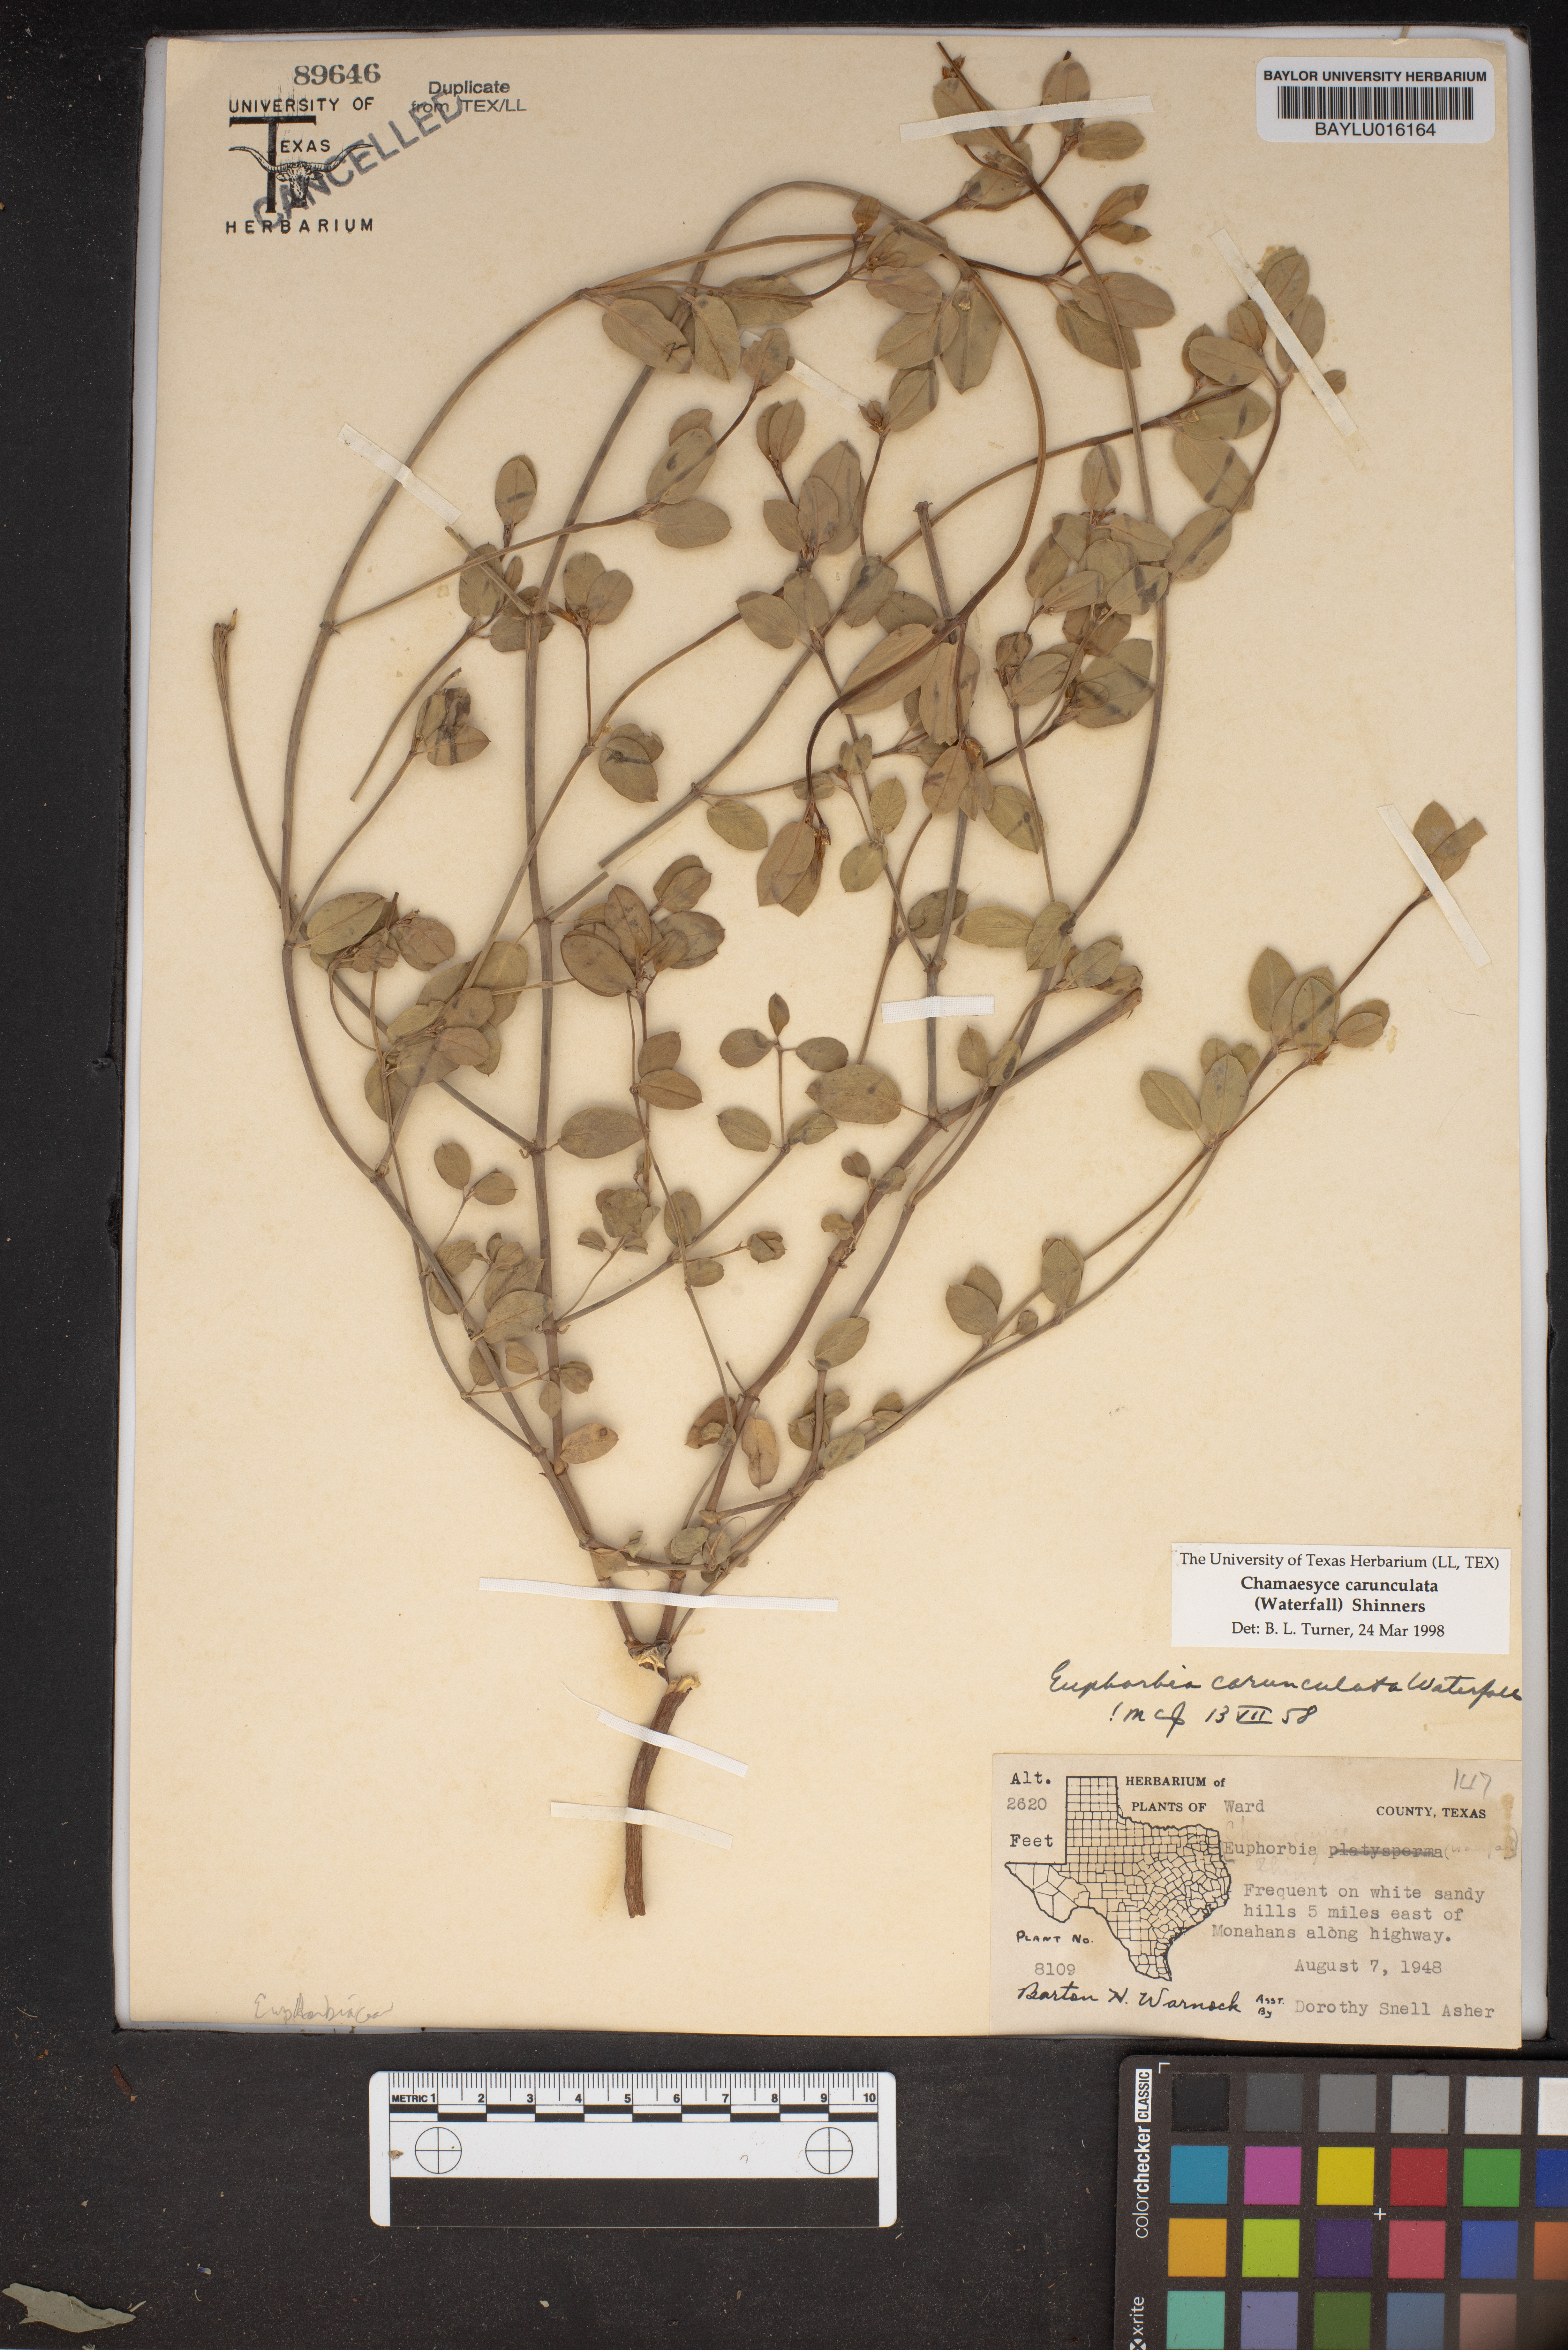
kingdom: Plantae
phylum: Tracheophyta
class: Magnoliopsida
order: Malpighiales
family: Euphorbiaceae
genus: Euphorbia
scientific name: Euphorbia carunculata
